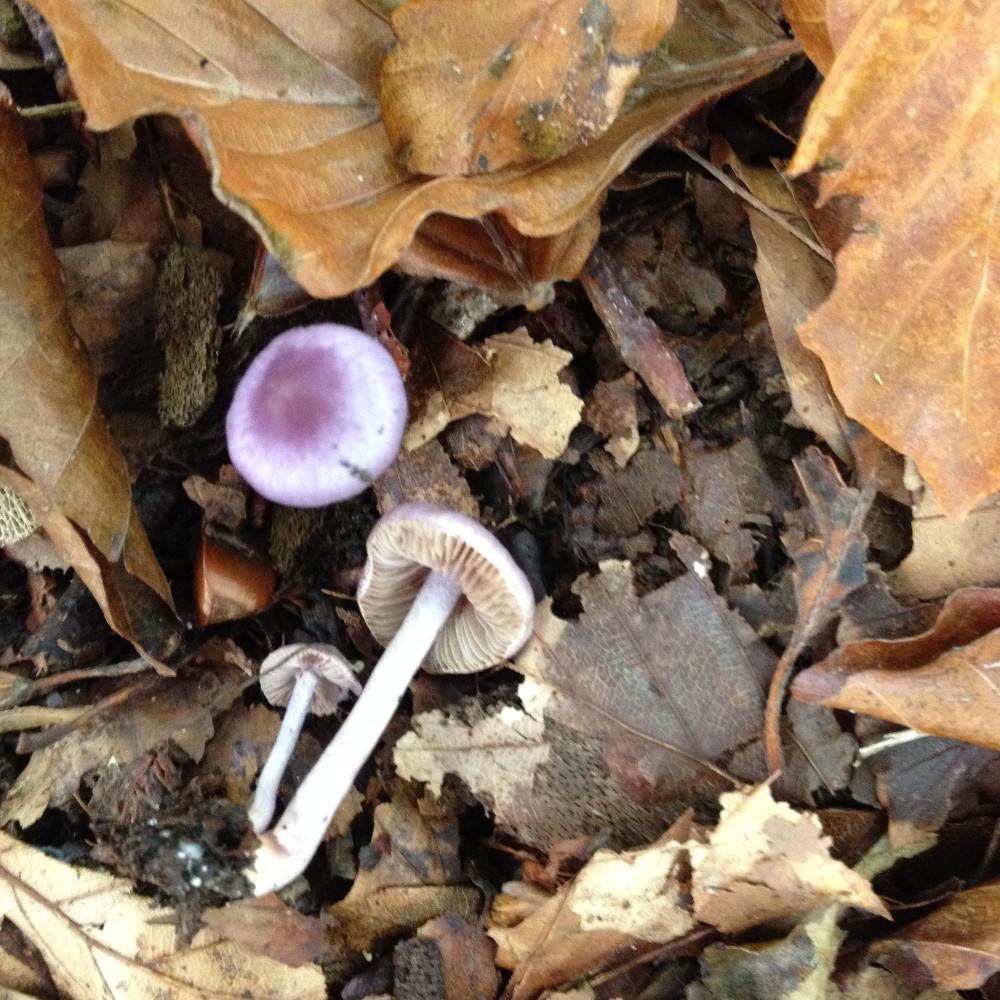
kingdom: Fungi
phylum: Basidiomycota
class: Agaricomycetes
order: Agaricales
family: Inocybaceae
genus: Inocybe
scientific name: Inocybe geophylla
